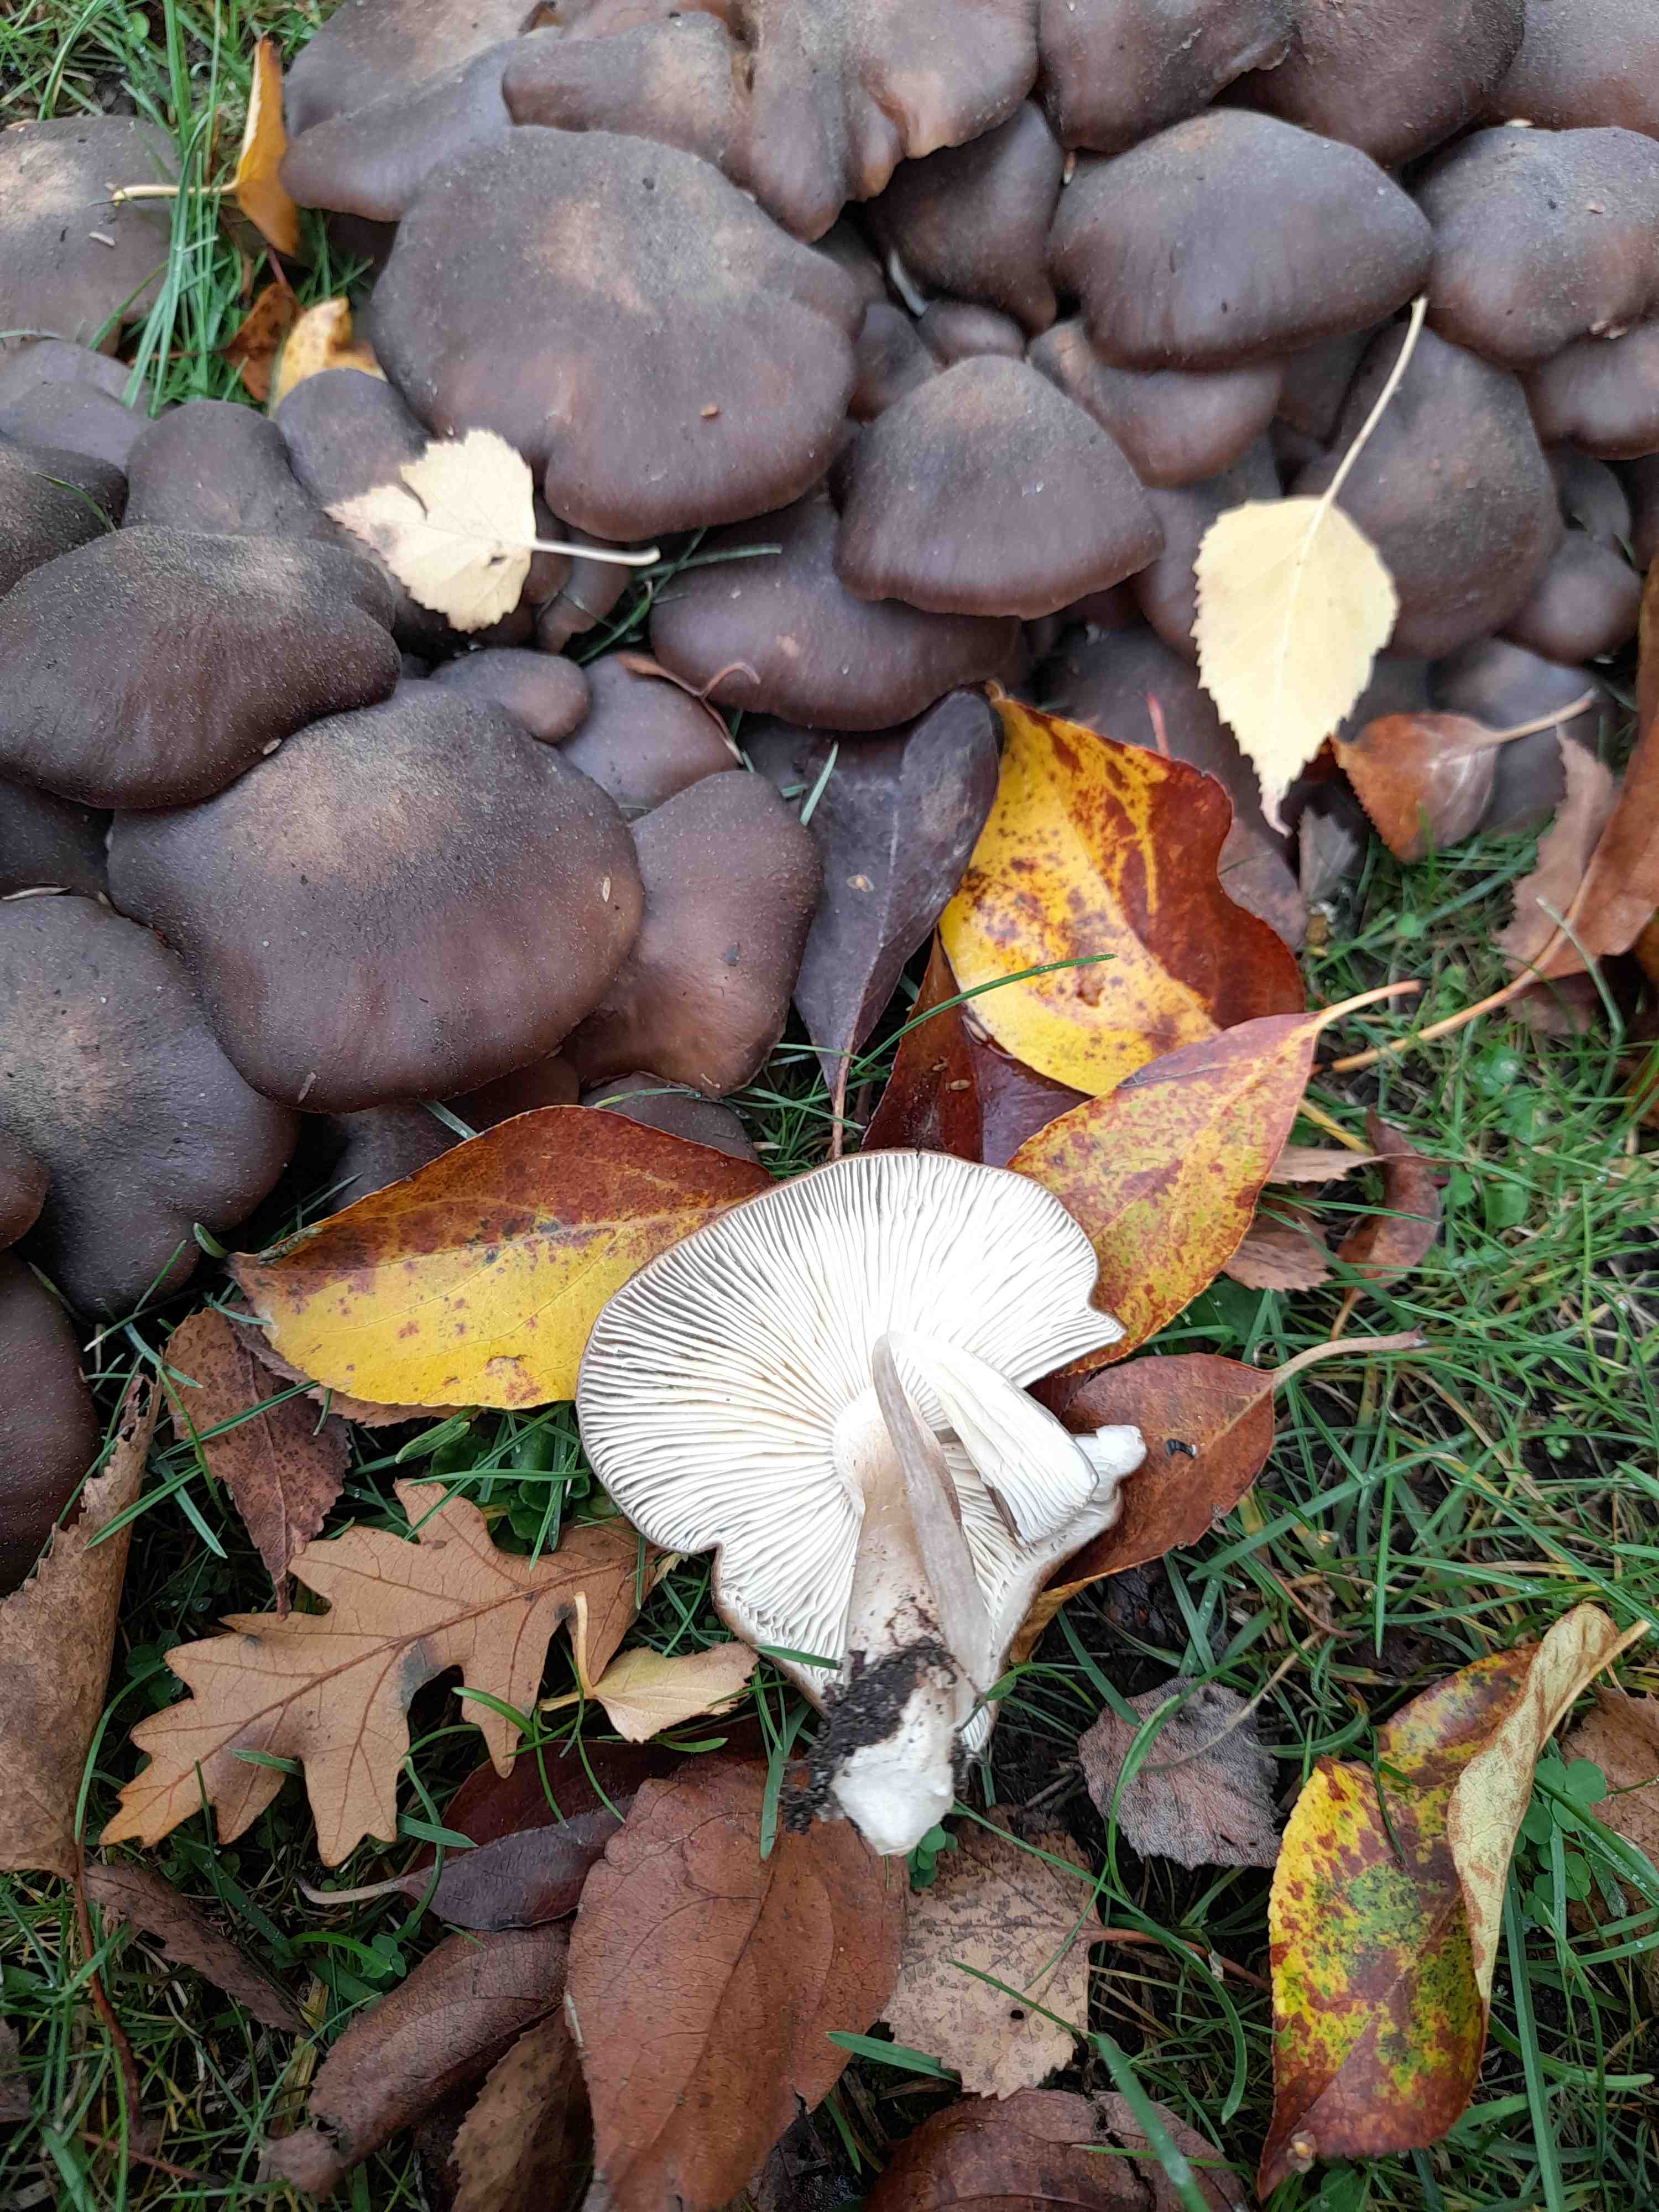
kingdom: Fungi
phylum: Basidiomycota
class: Agaricomycetes
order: Agaricales
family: Lyophyllaceae
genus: Lyophyllum
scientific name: Lyophyllum decastes
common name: Clustered domecap
